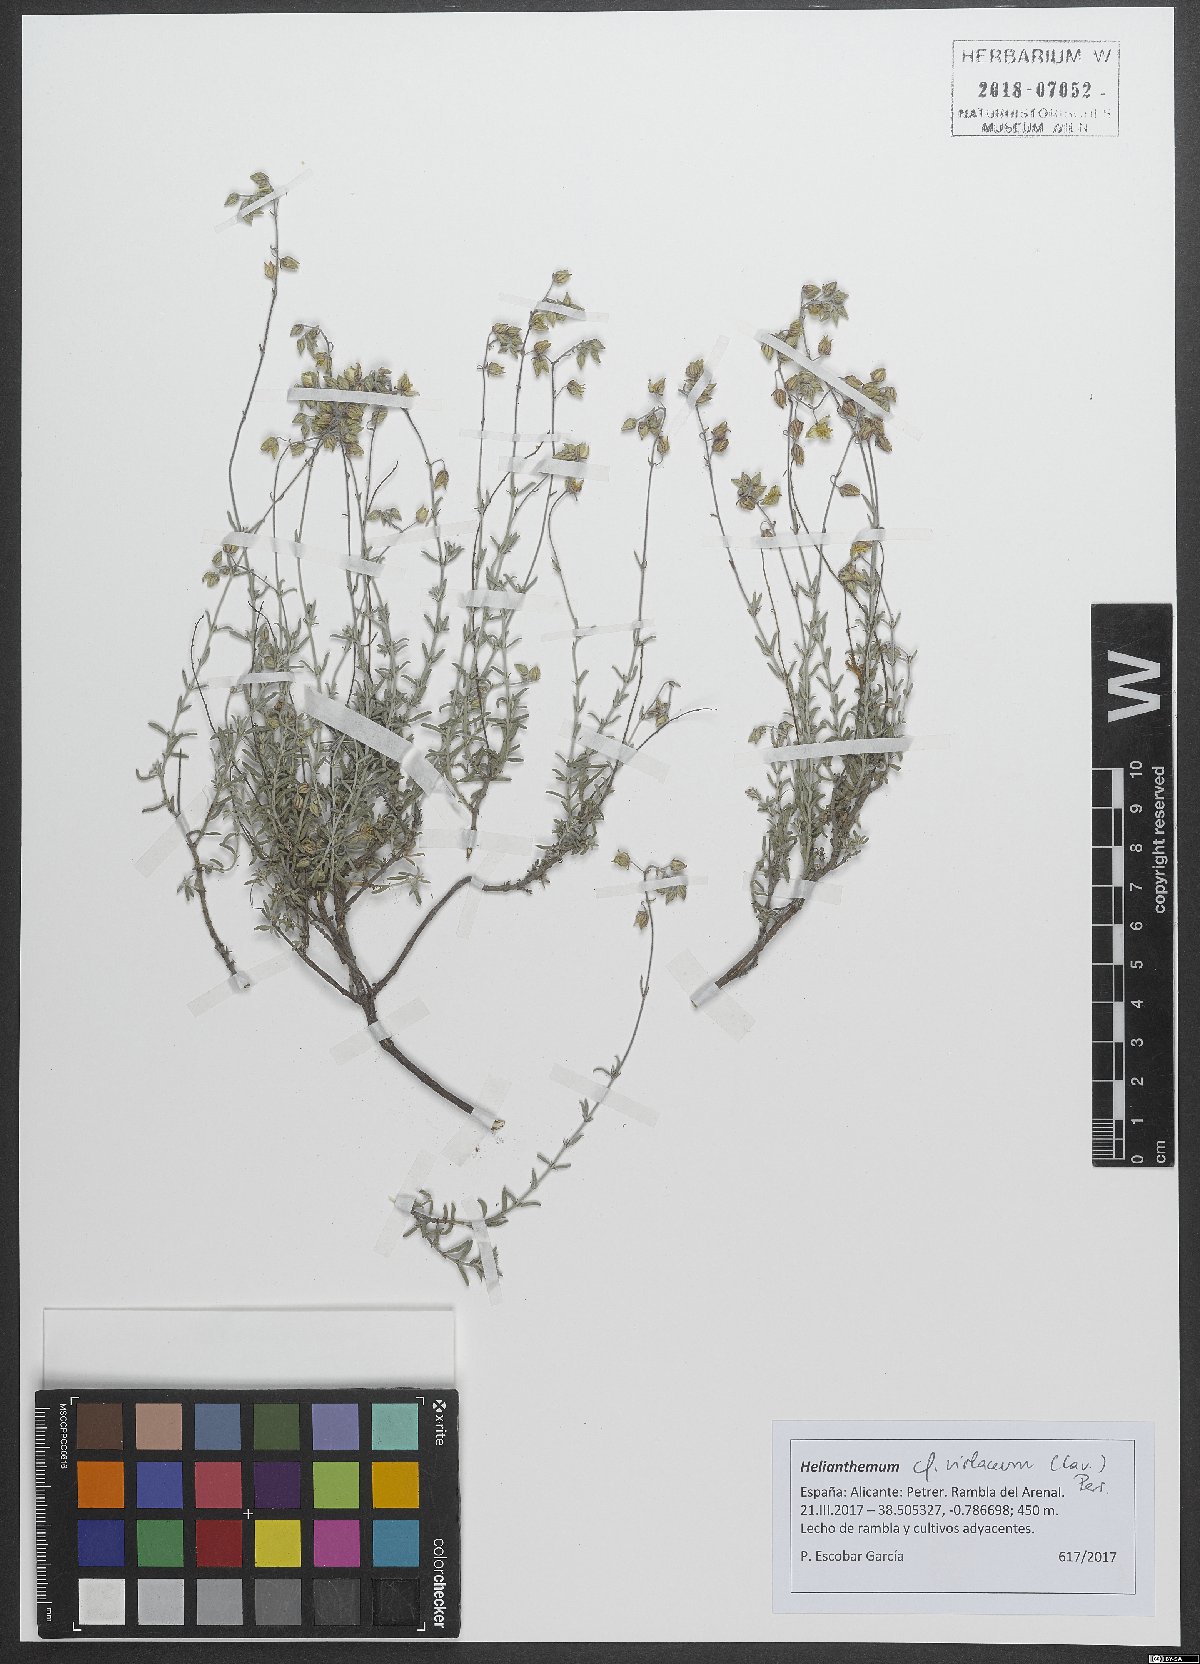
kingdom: Plantae
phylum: Tracheophyta
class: Magnoliopsida
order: Malvales
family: Cistaceae
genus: Helianthemum
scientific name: Helianthemum violaceum
